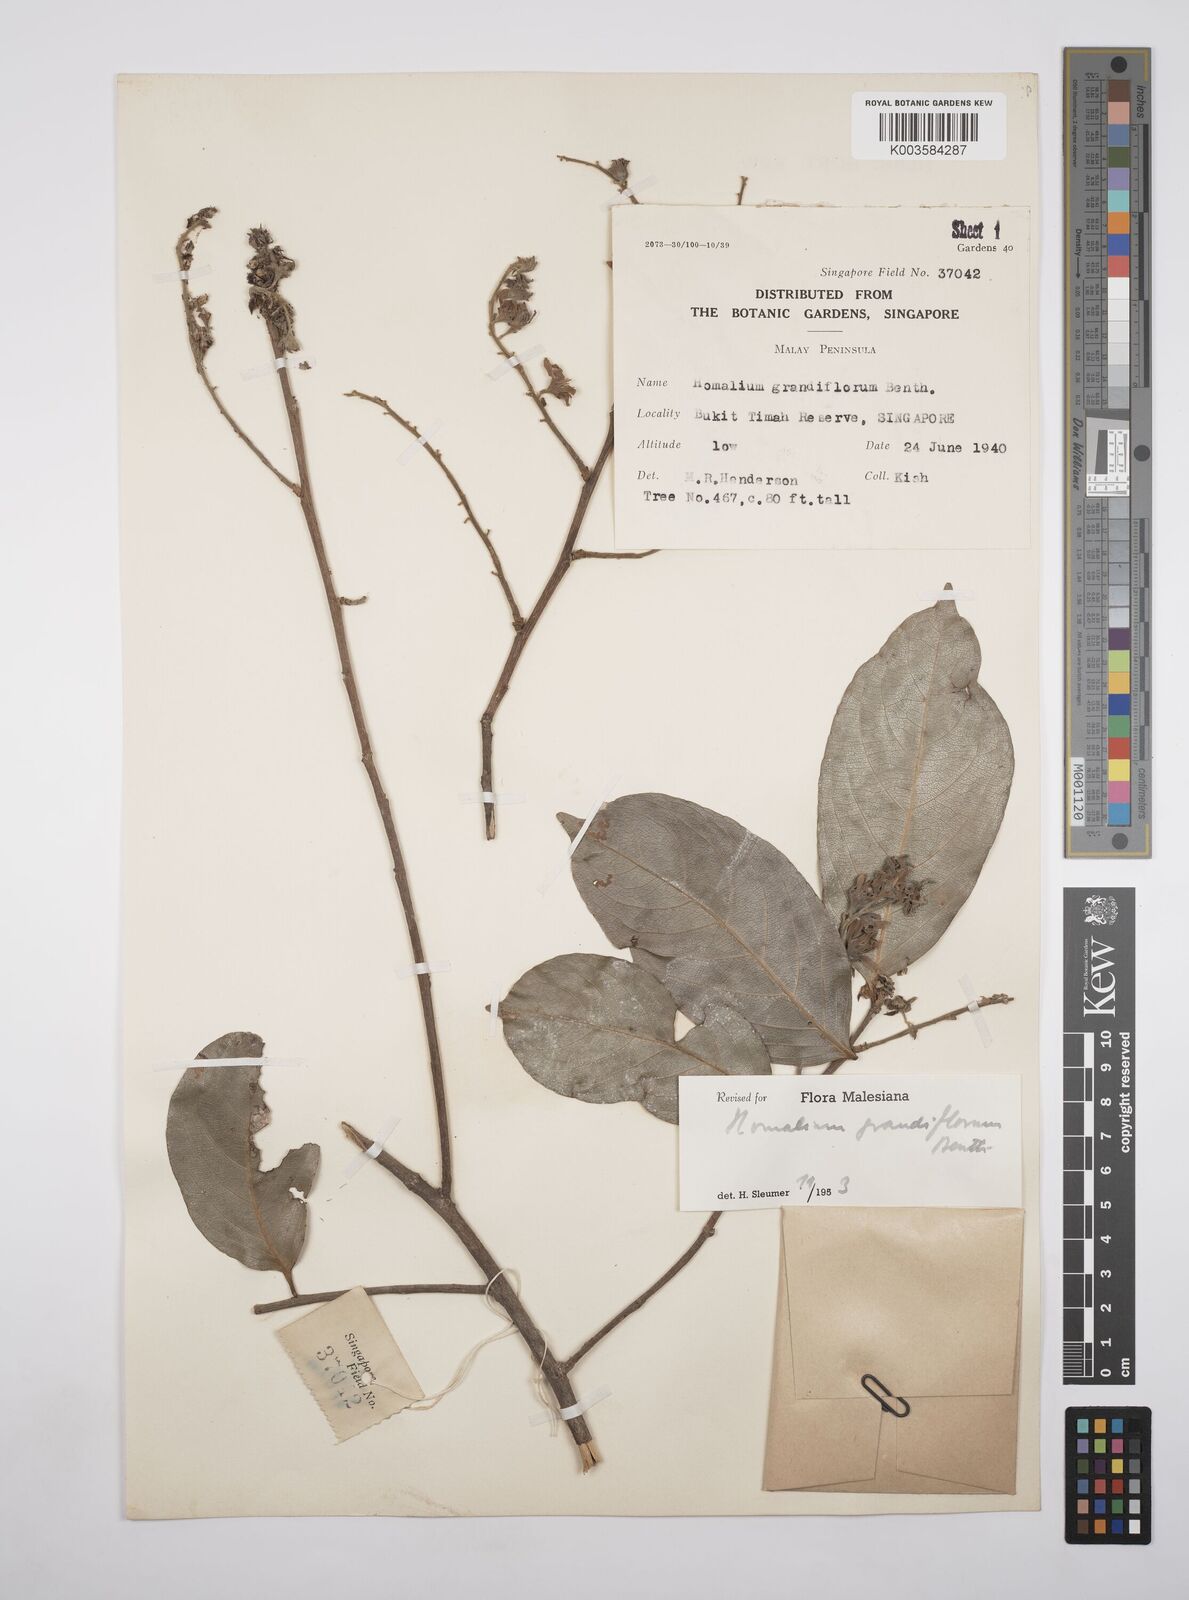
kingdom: Plantae
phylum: Tracheophyta
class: Magnoliopsida
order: Malpighiales
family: Salicaceae
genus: Homalium
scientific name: Homalium grandiflorum
